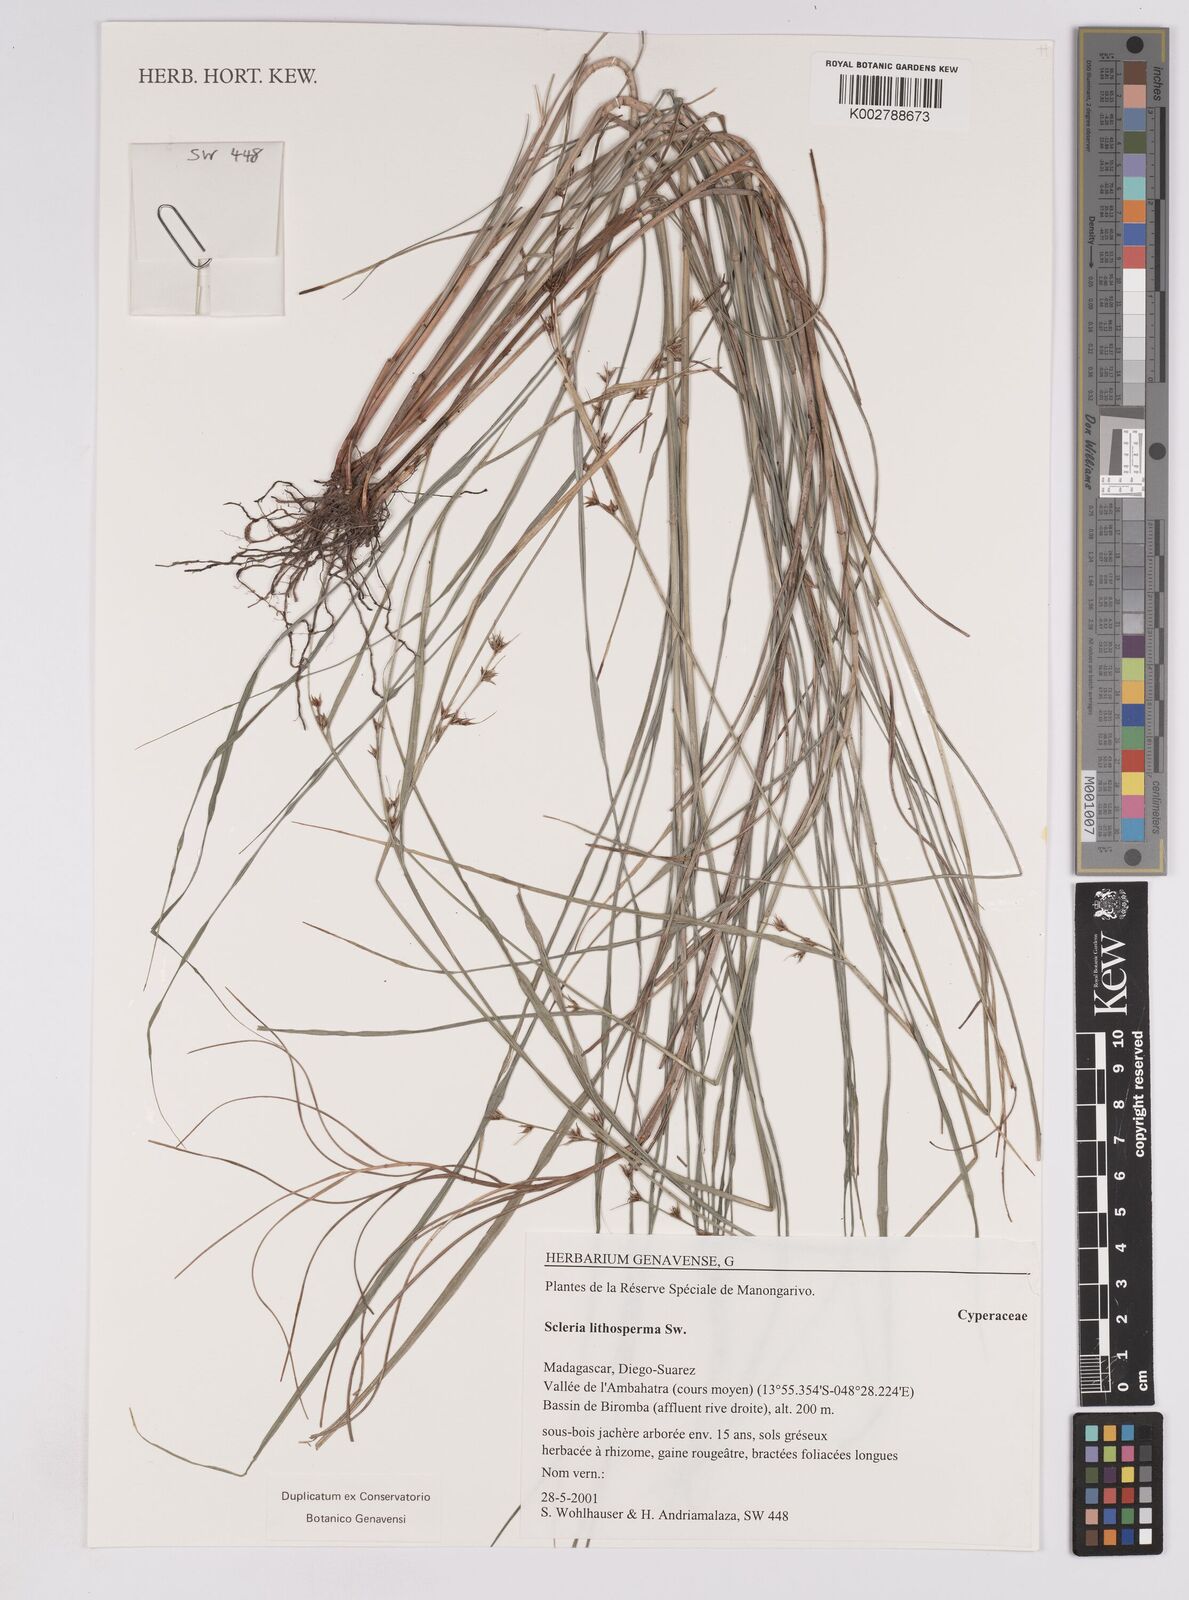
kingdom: Plantae
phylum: Tracheophyta
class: Liliopsida
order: Poales
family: Cyperaceae
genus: Scleria
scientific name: Scleria lithosperma
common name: Florida keys nut-rush
